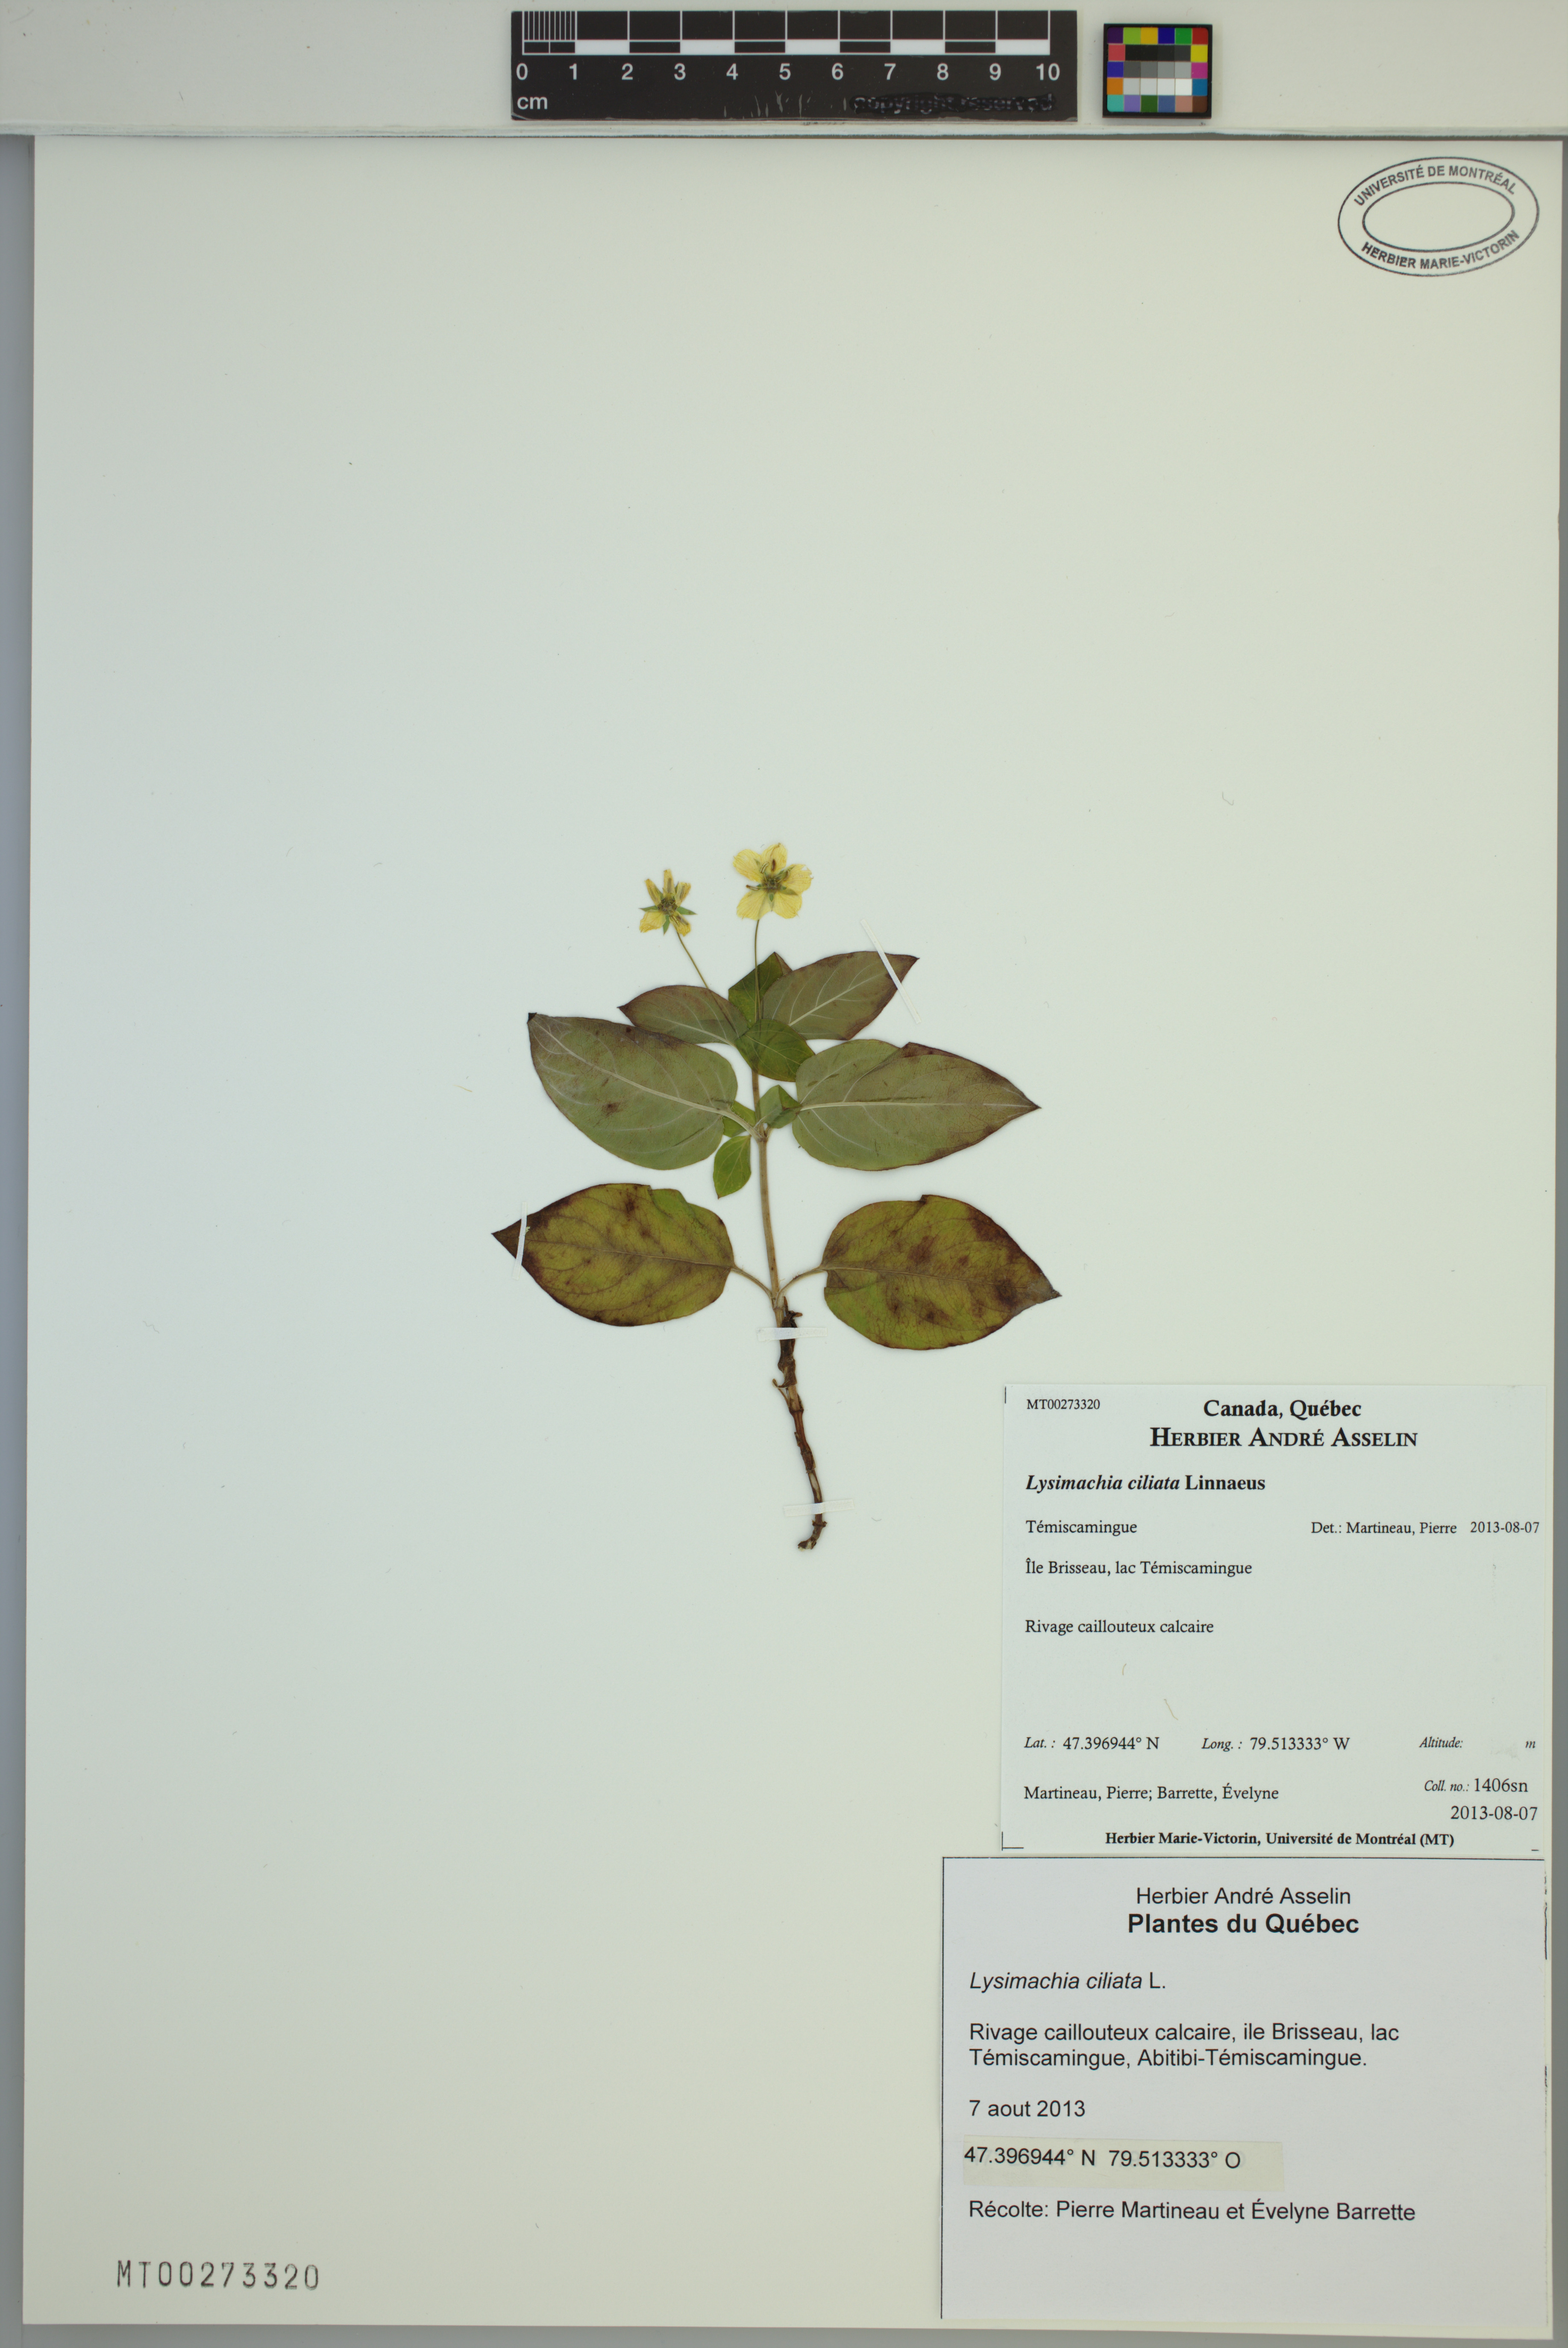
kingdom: Plantae
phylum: Tracheophyta
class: Magnoliopsida
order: Ericales
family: Primulaceae
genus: Lysimachia
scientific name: Lysimachia ciliata
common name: Fringed loosestrife
